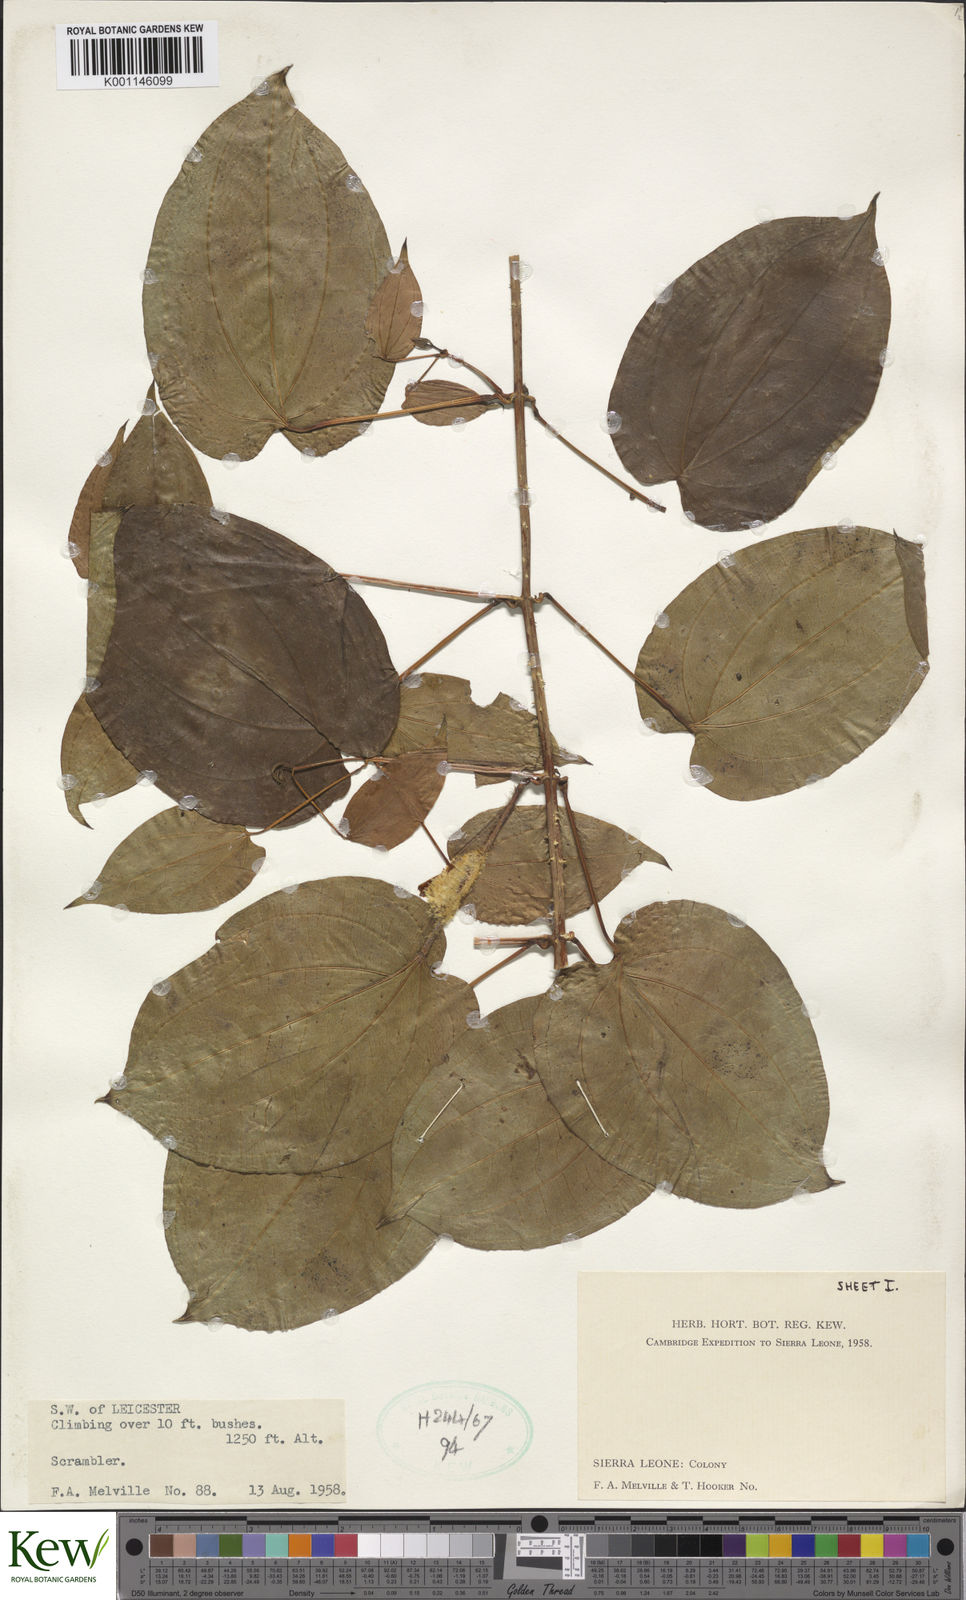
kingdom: Plantae
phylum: Tracheophyta
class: Liliopsida
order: Dioscoreales
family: Dioscoreaceae
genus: Dioscorea
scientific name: Dioscorea
